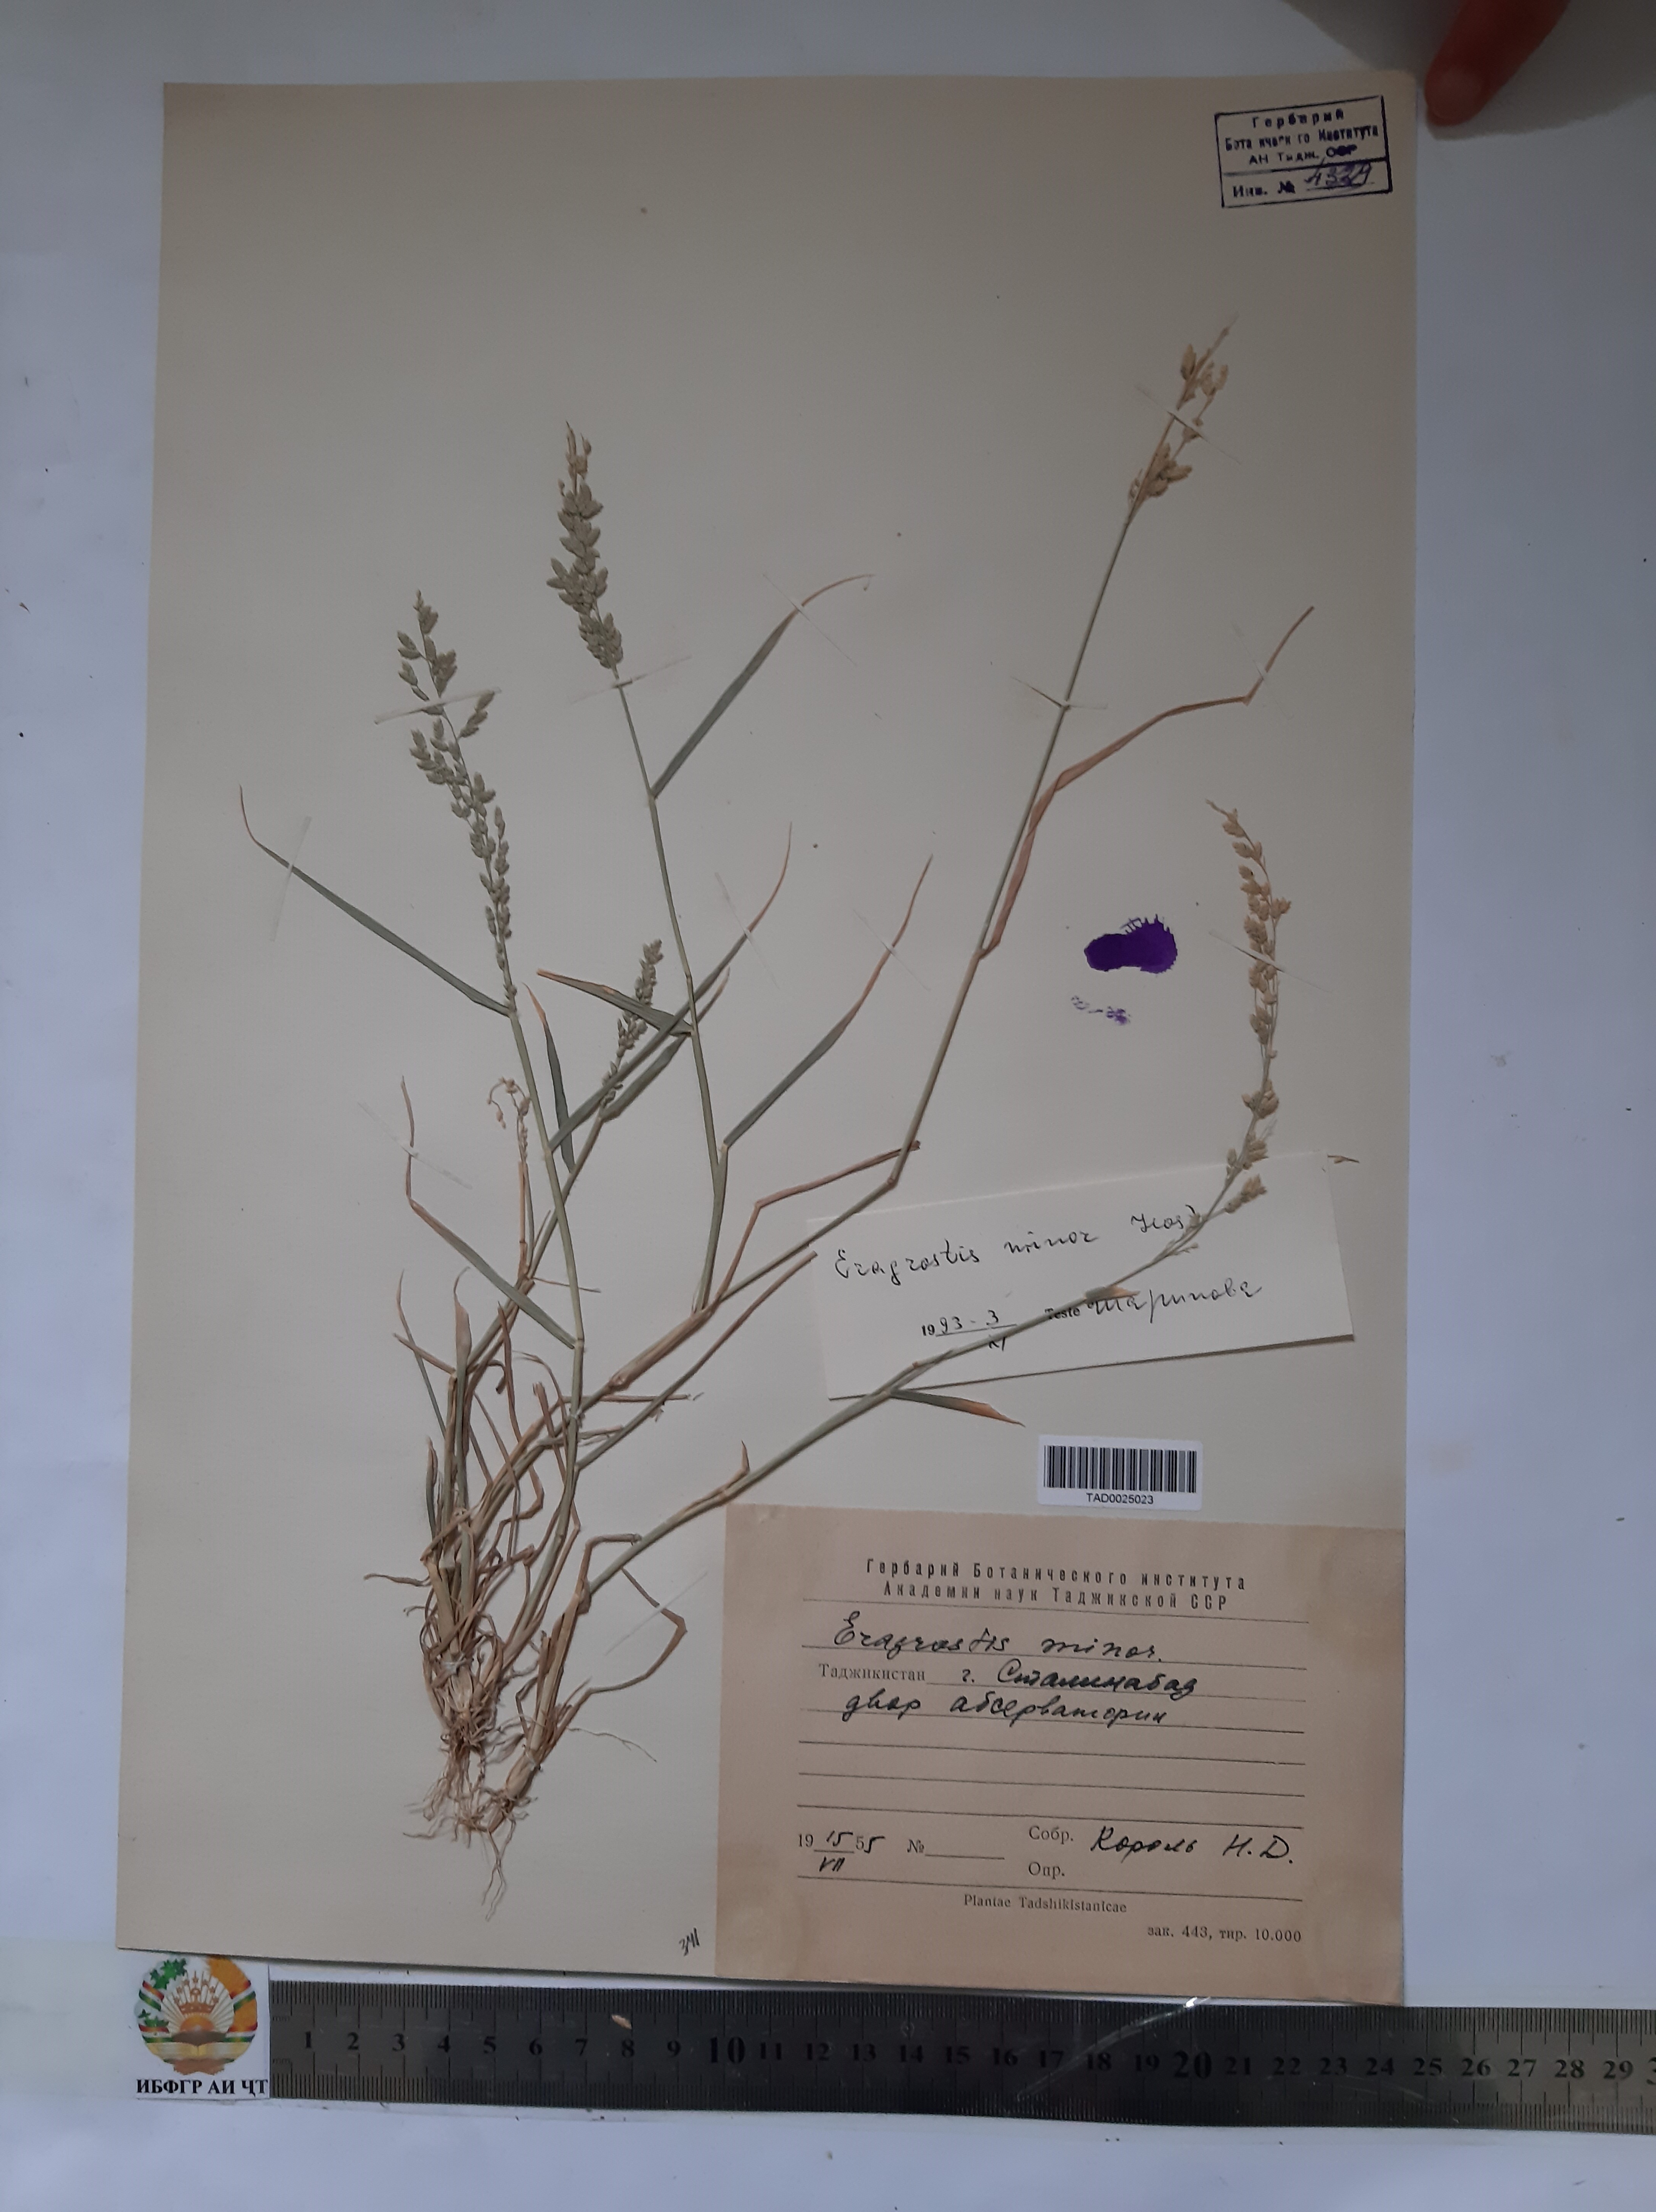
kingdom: Plantae
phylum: Tracheophyta
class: Liliopsida
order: Poales
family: Poaceae
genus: Eragrostis
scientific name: Eragrostis minor
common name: Small love-grass
